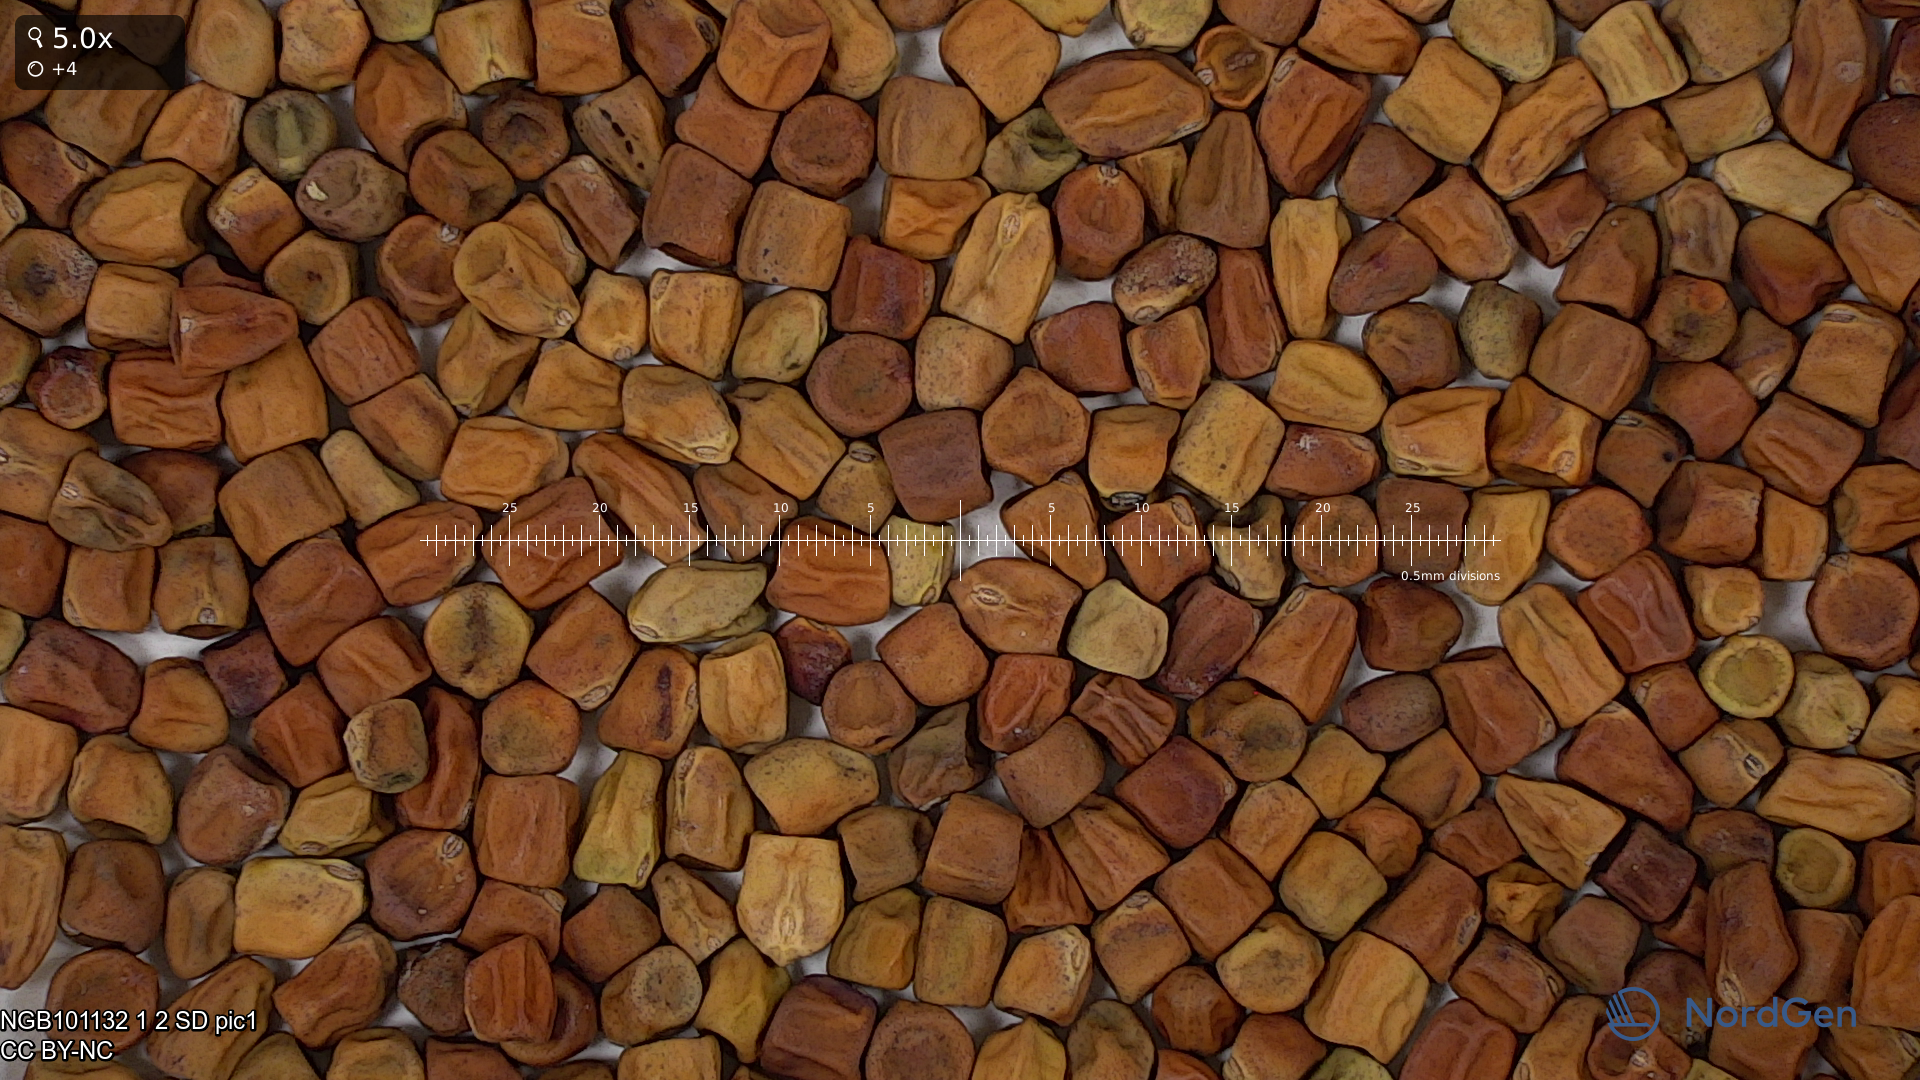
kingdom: Plantae
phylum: Tracheophyta
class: Magnoliopsida
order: Fabales
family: Fabaceae
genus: Lathyrus
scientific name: Lathyrus oleraceus
